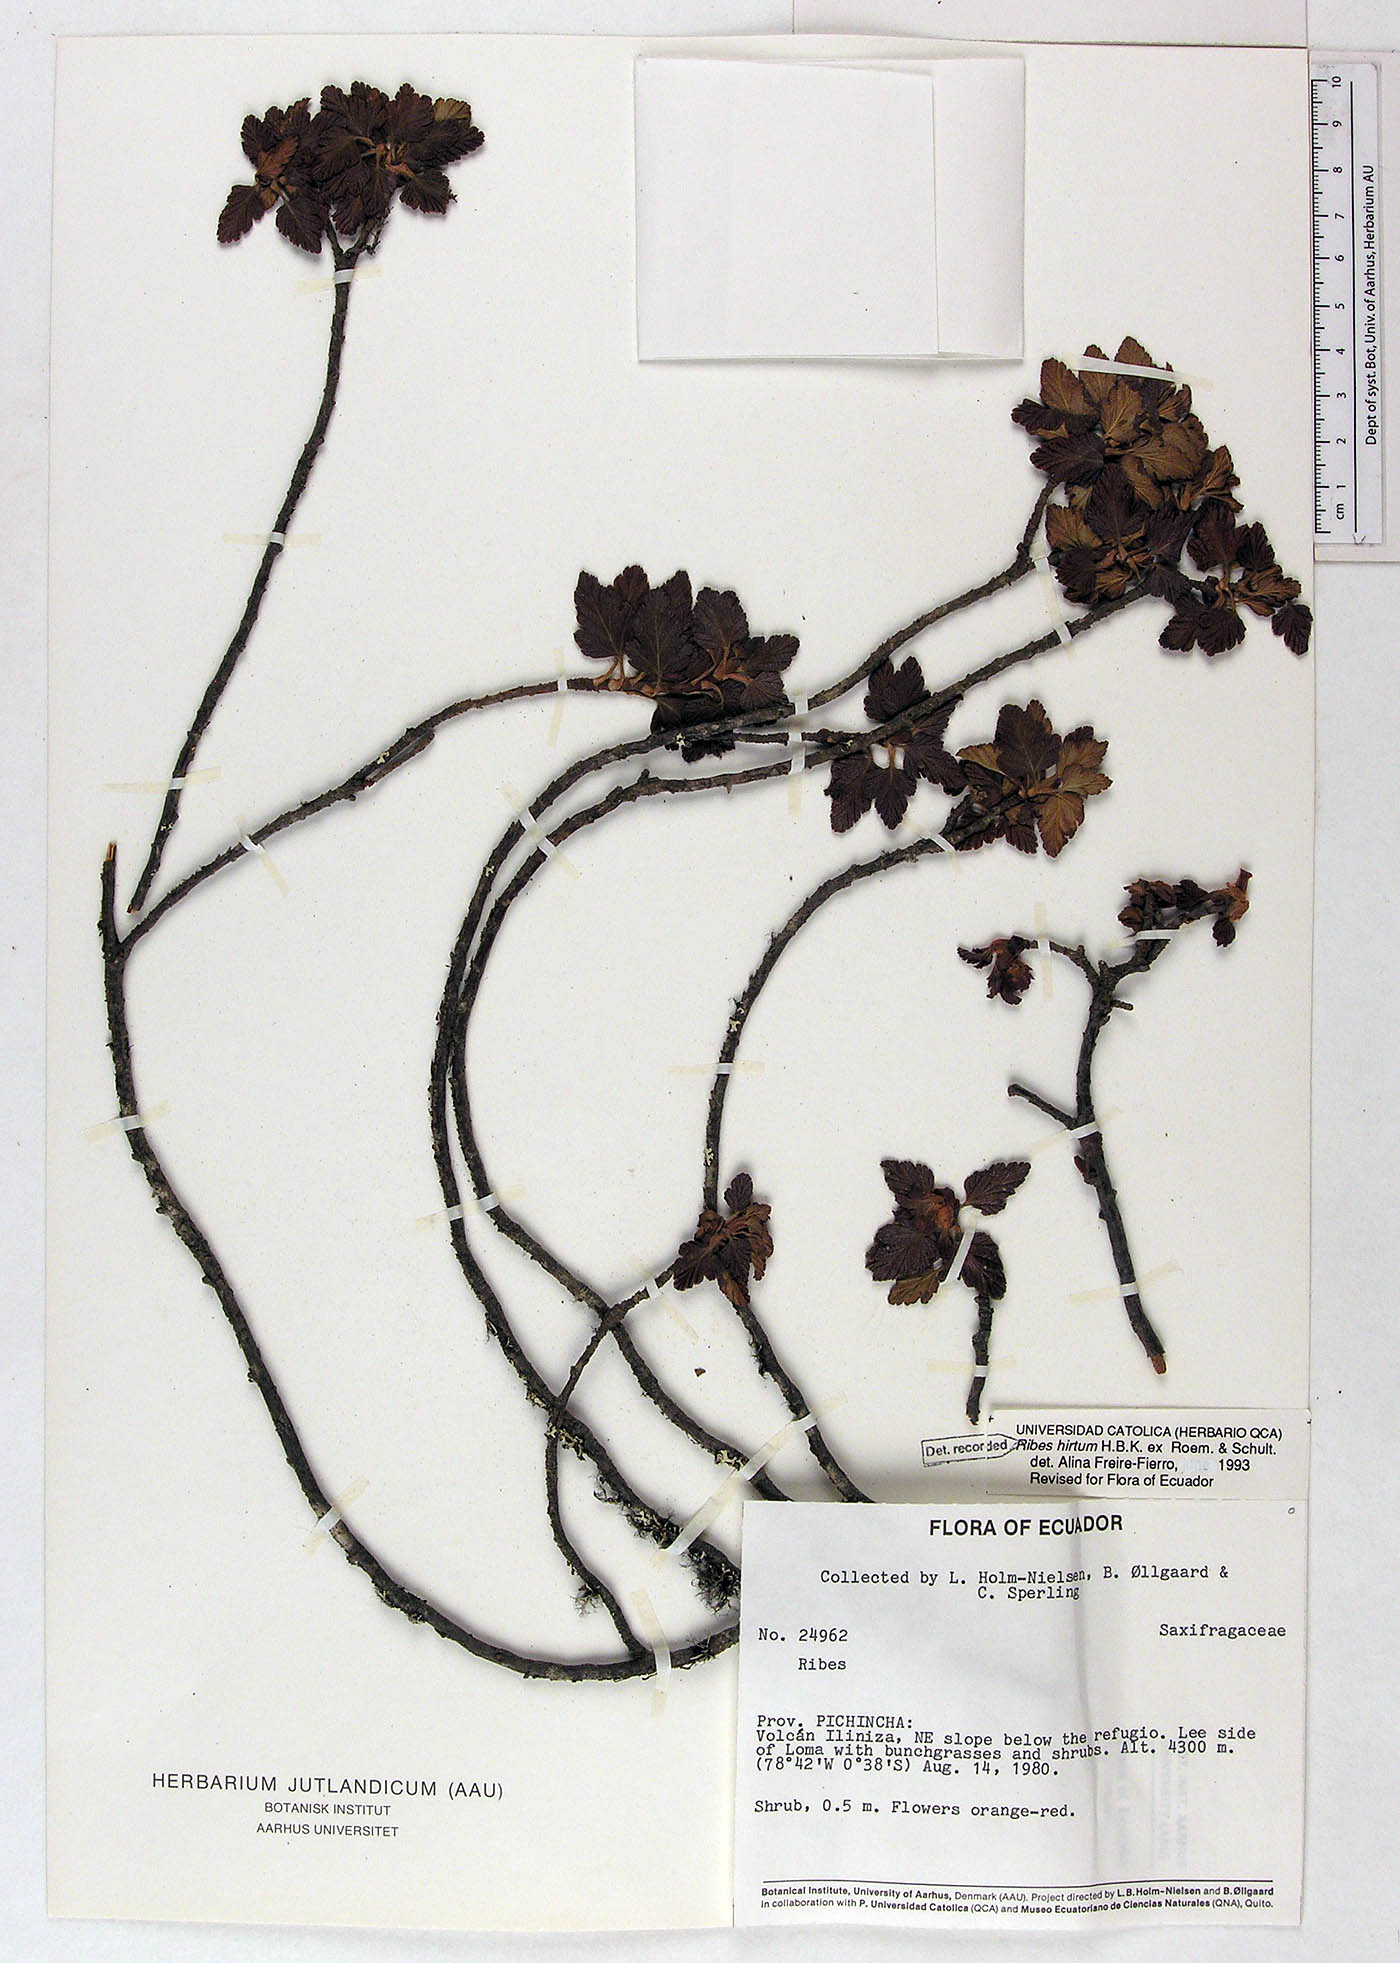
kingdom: Plantae
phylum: Tracheophyta
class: Magnoliopsida
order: Saxifragales
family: Grossulariaceae
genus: Ribes
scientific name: Ribes hirtum
